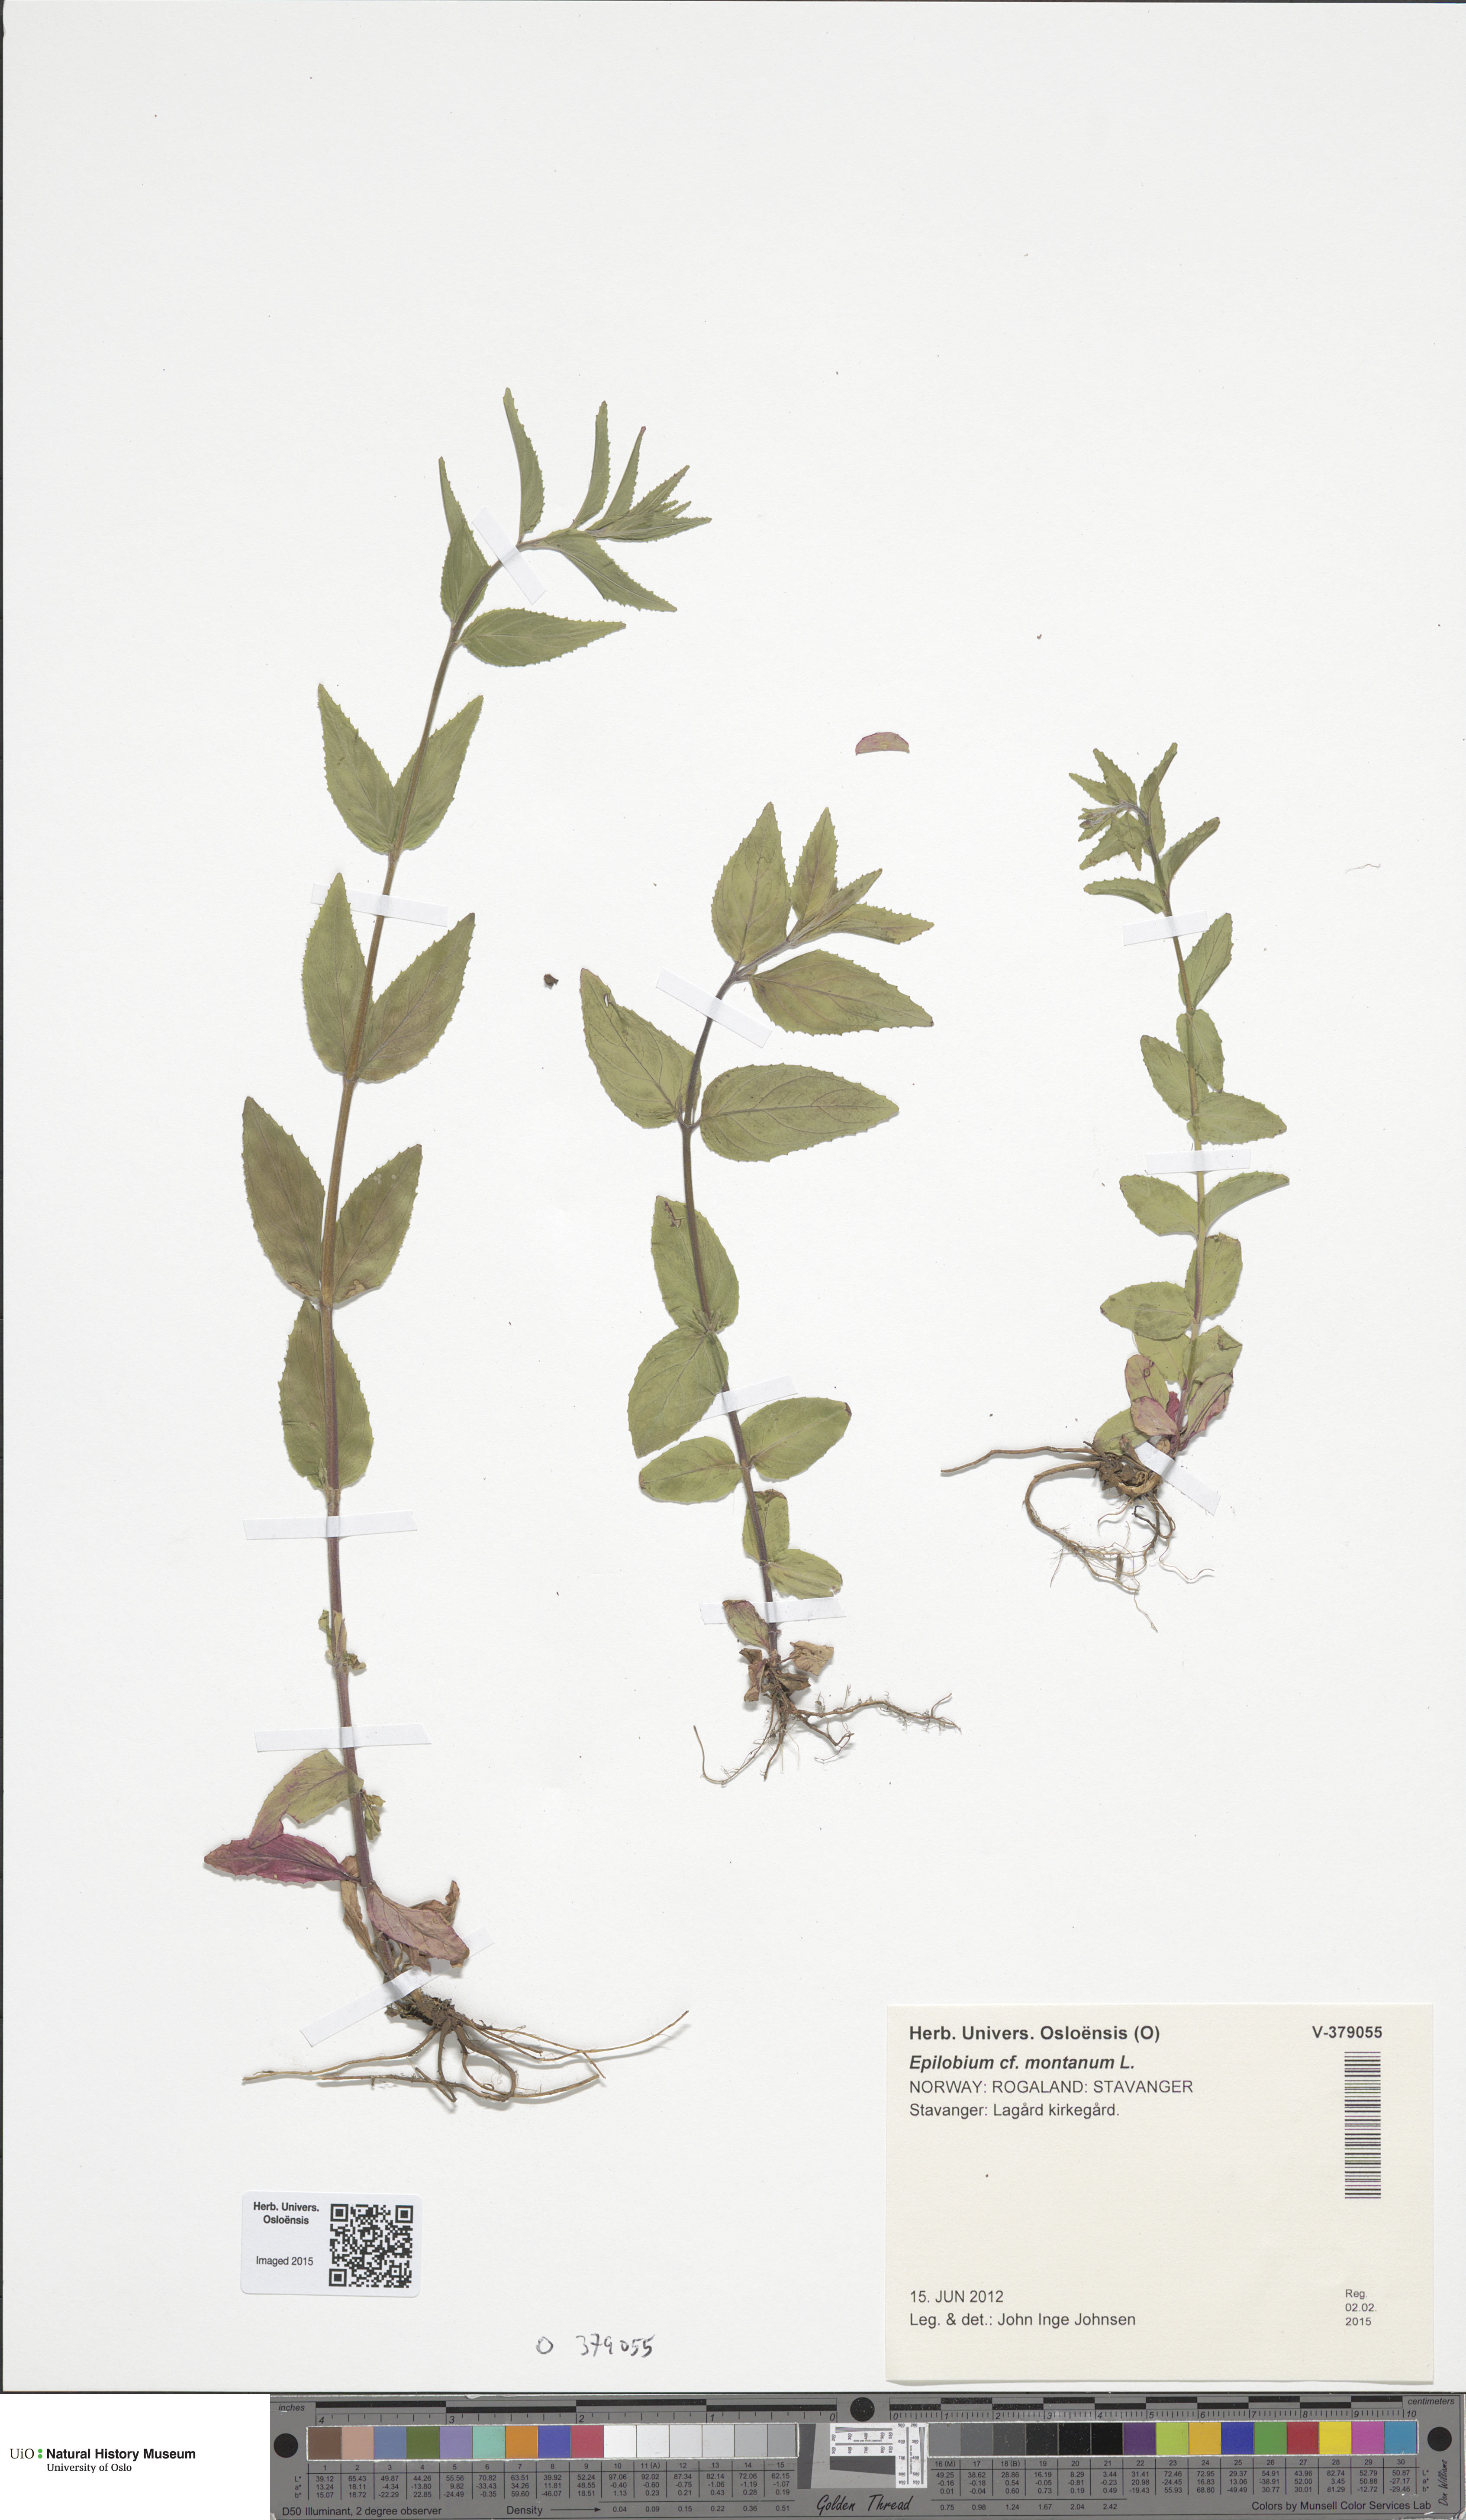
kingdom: Plantae
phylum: Tracheophyta
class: Magnoliopsida
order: Myrtales
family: Onagraceae
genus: Epilobium
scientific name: Epilobium montanum
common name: Broad-leaved willowherb
